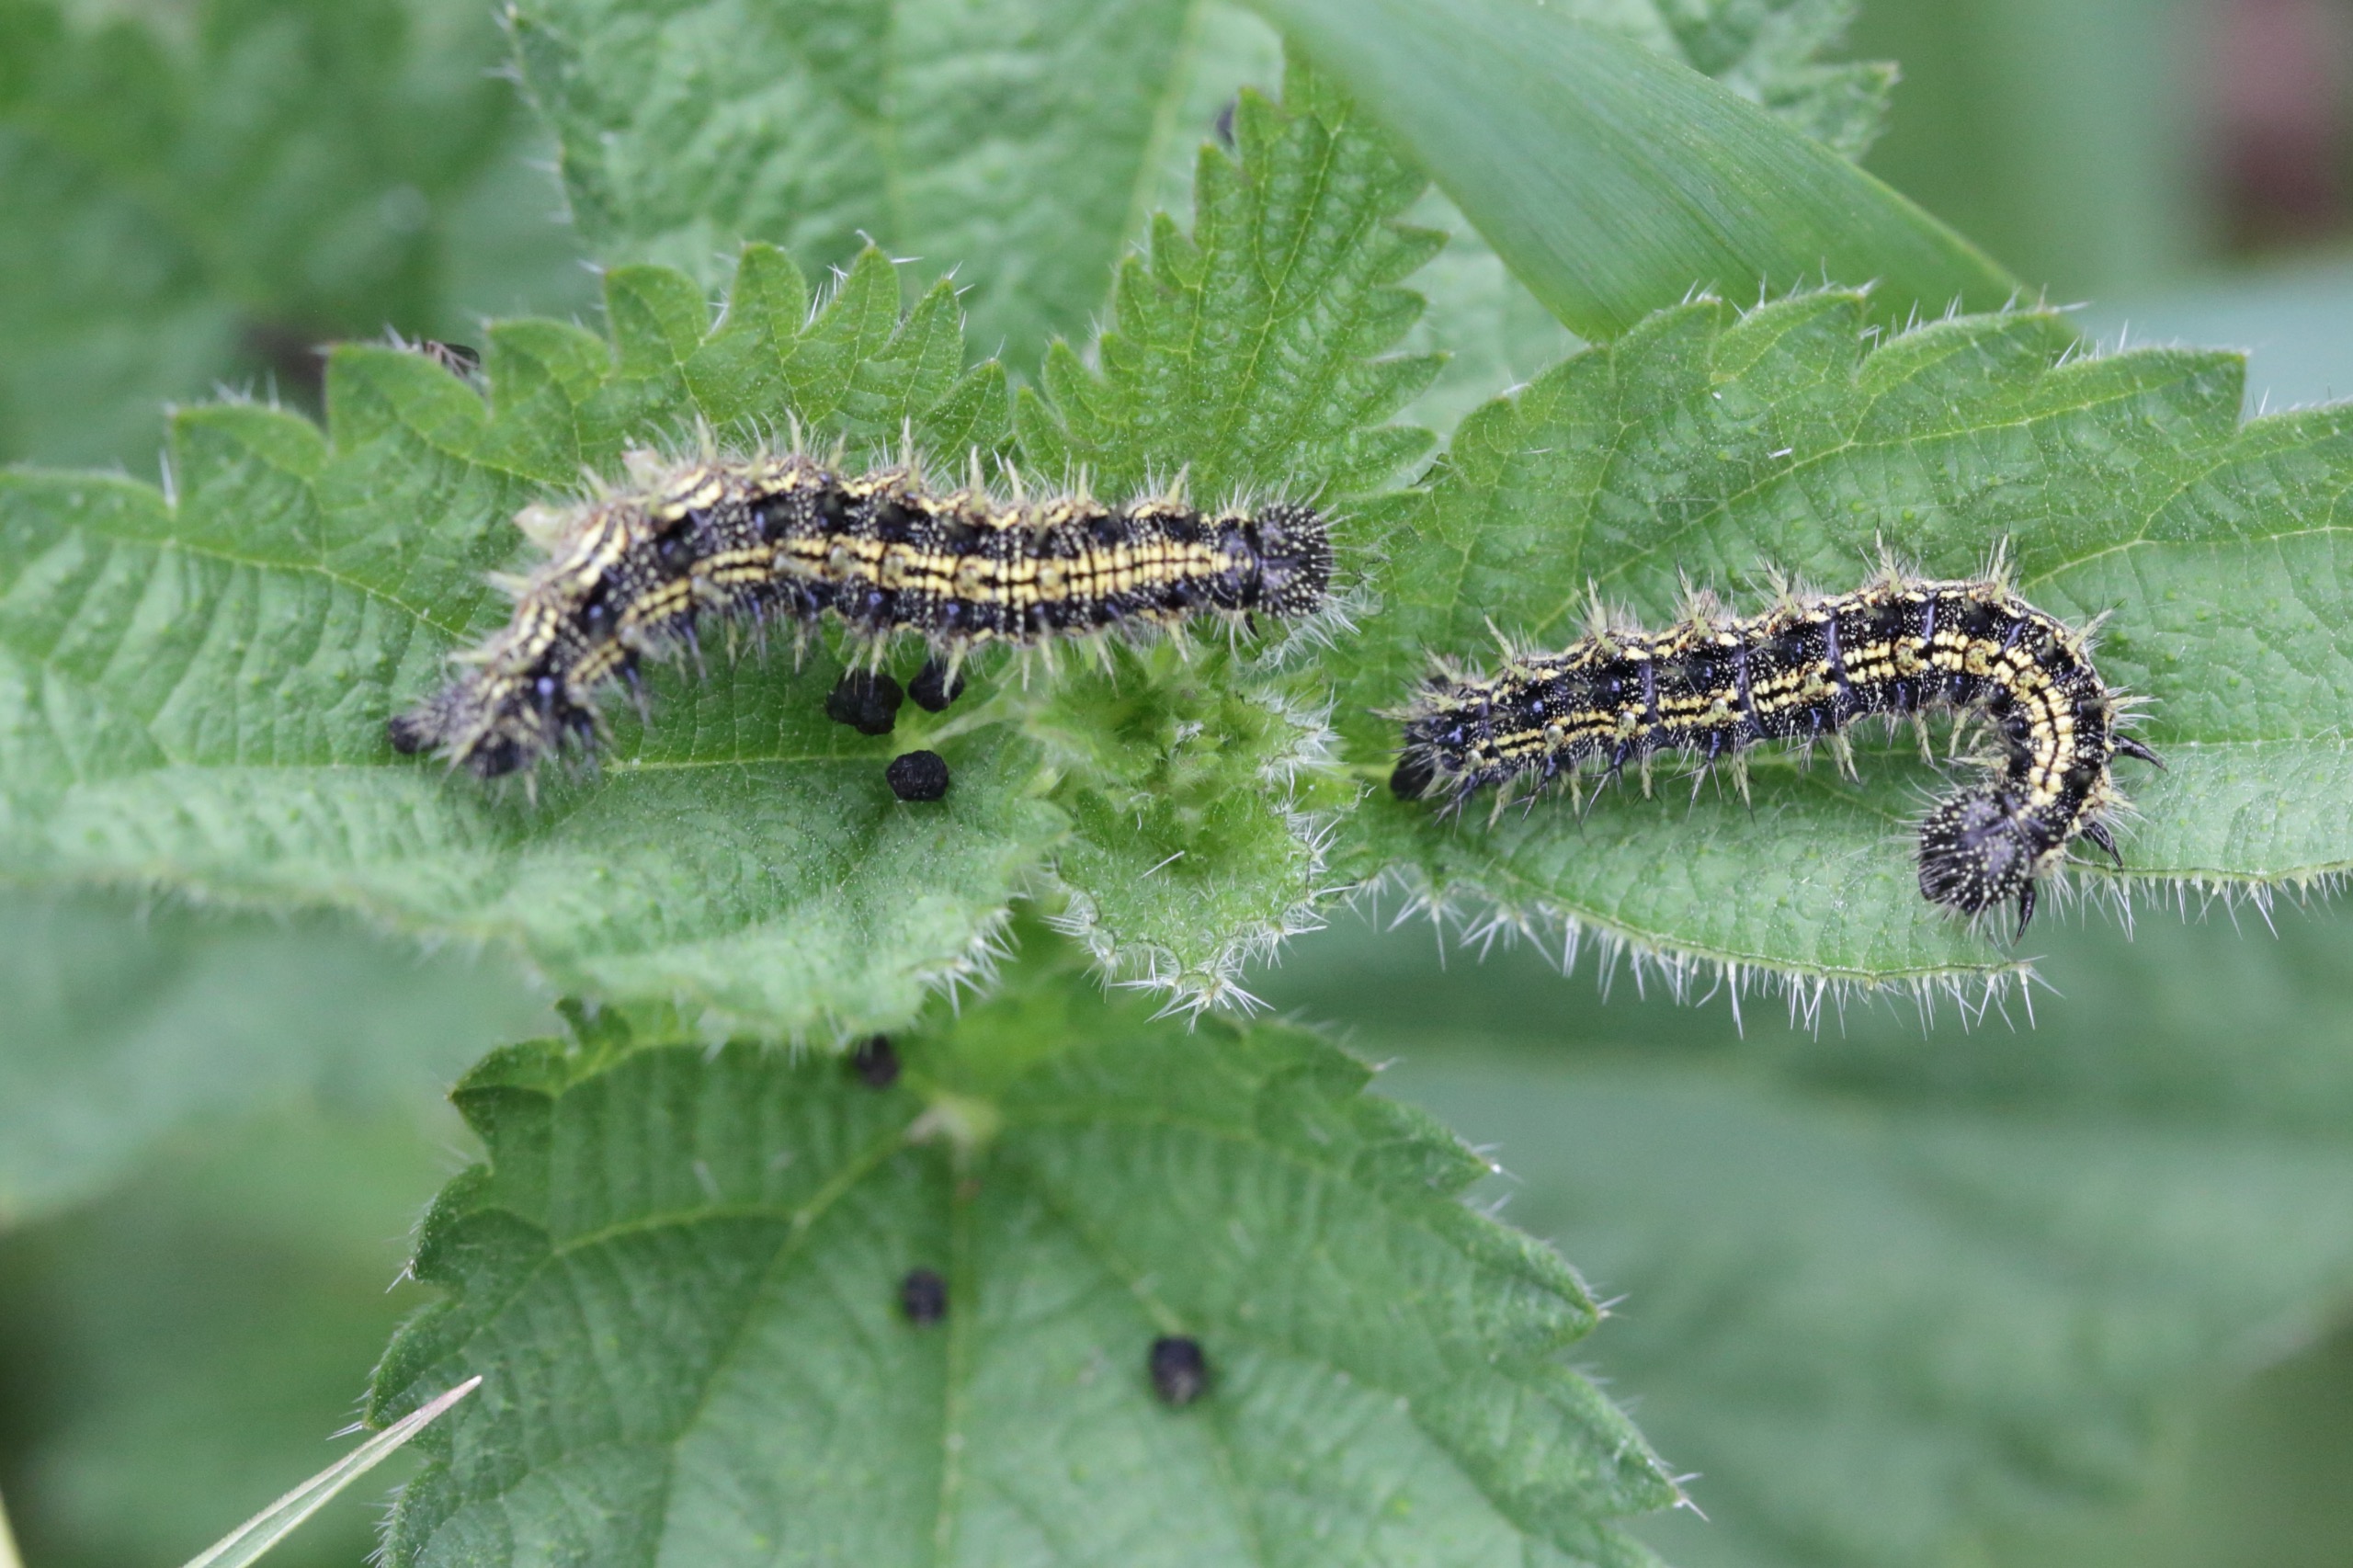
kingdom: Animalia
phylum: Arthropoda
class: Insecta
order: Lepidoptera
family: Nymphalidae
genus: Aglais
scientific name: Aglais urticae
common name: Nældens takvinge
